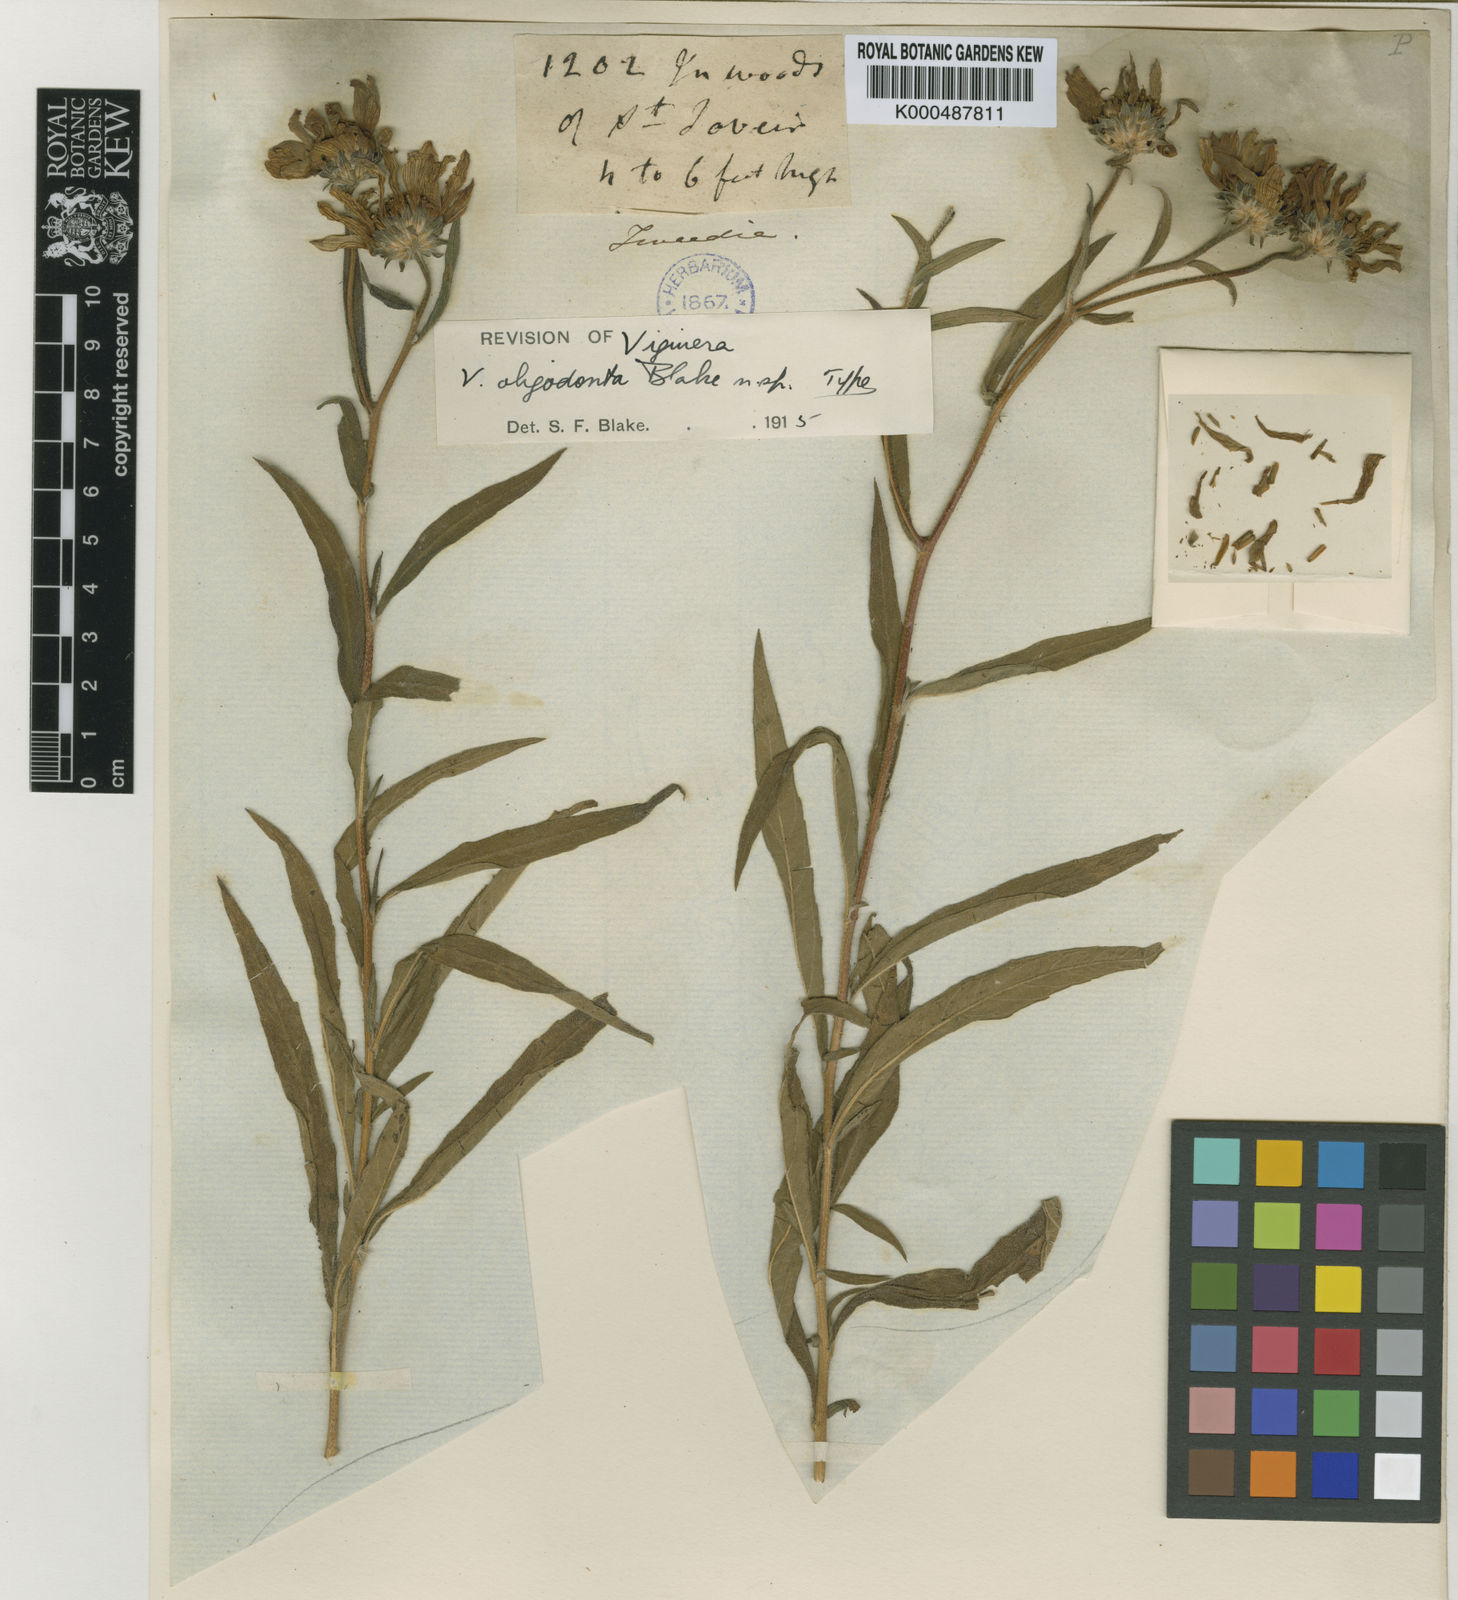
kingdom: Plantae
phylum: Tracheophyta
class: Magnoliopsida
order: Asterales
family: Asteraceae
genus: Aldama
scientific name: Aldama tucumanensis
